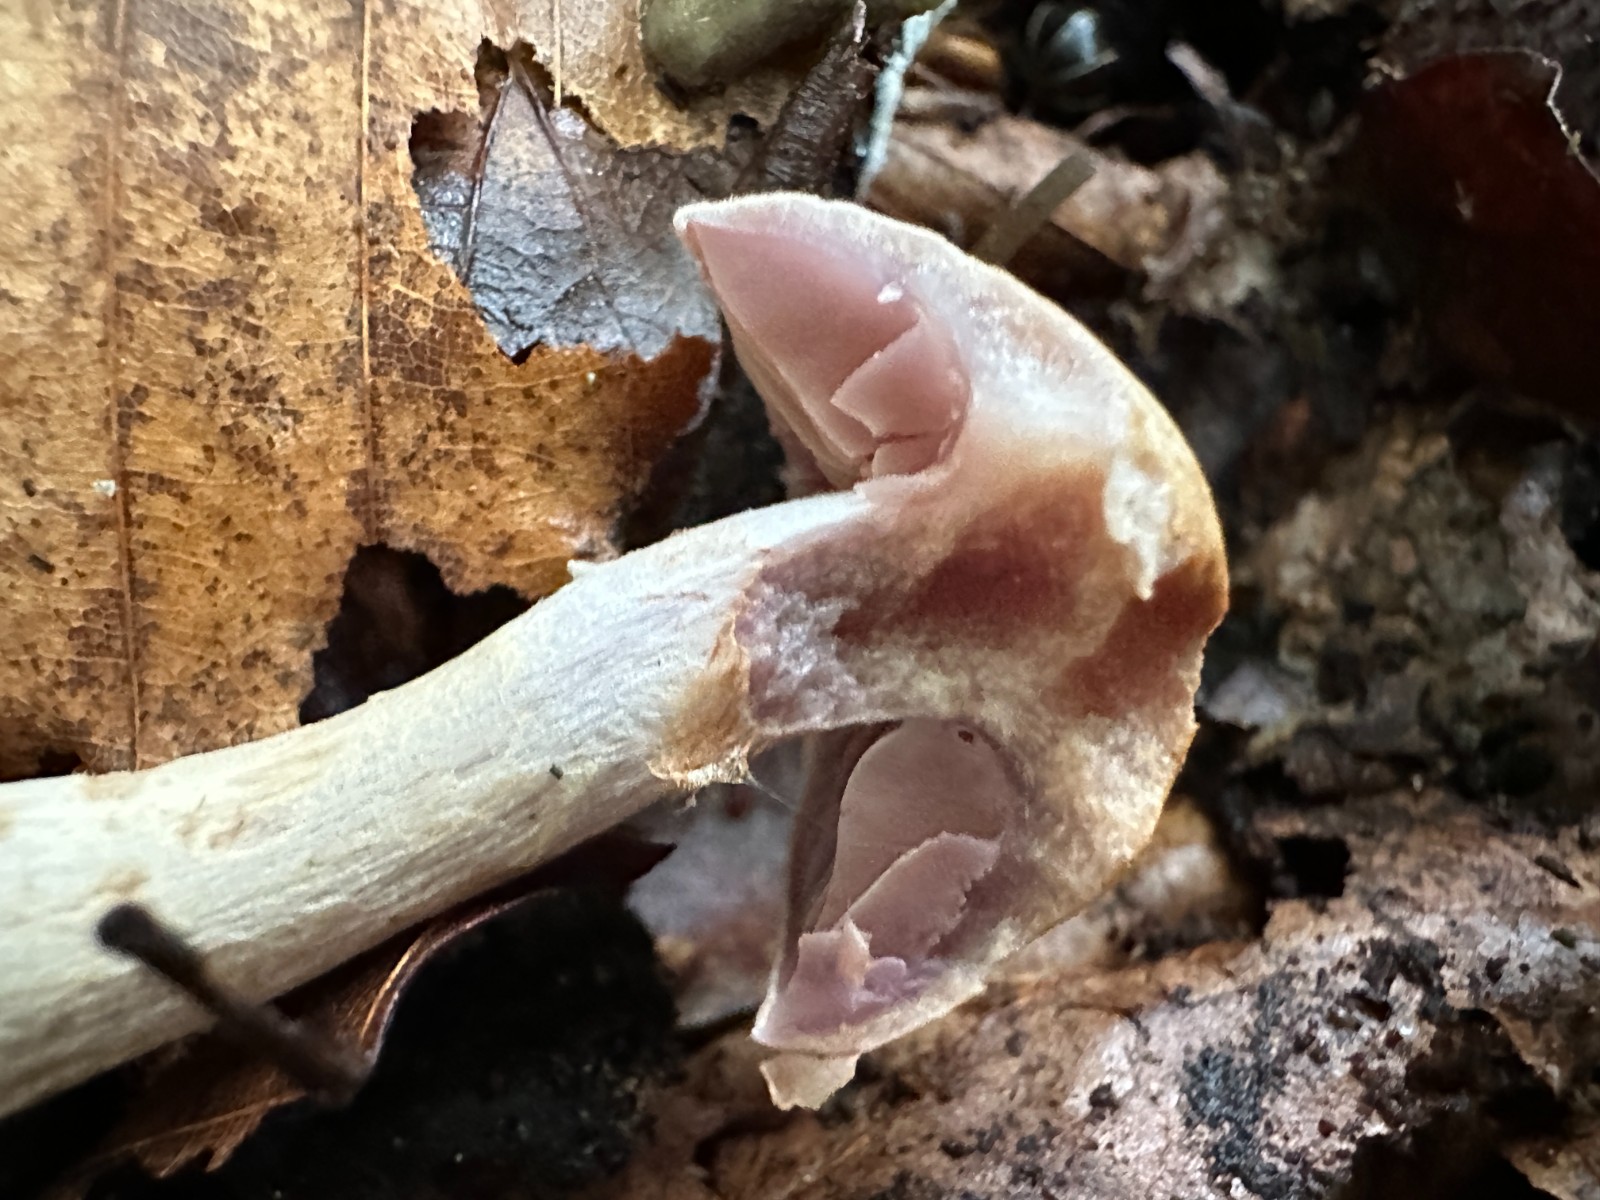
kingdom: Fungi
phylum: Basidiomycota
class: Agaricomycetes
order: Agaricales
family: Cortinariaceae
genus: Cortinarius
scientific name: Cortinarius
